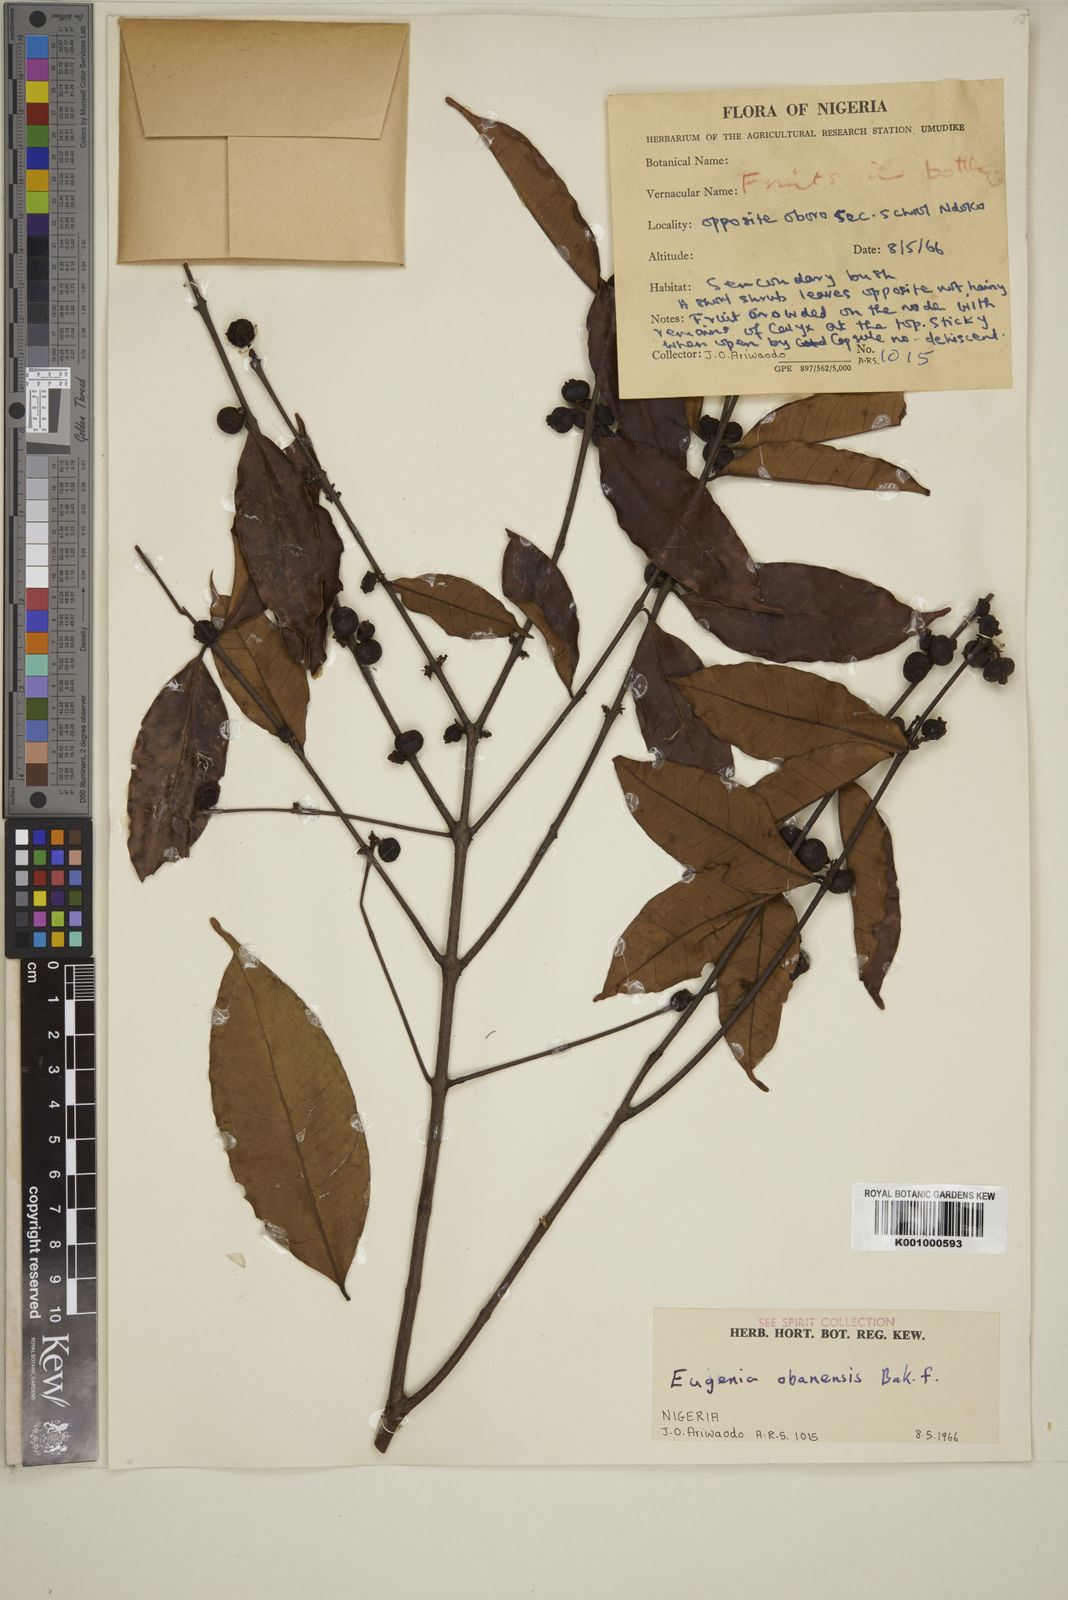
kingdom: Plantae
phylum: Tracheophyta
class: Magnoliopsida
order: Myrtales
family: Myrtaceae
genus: Eugenia
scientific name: Eugenia obanensis
